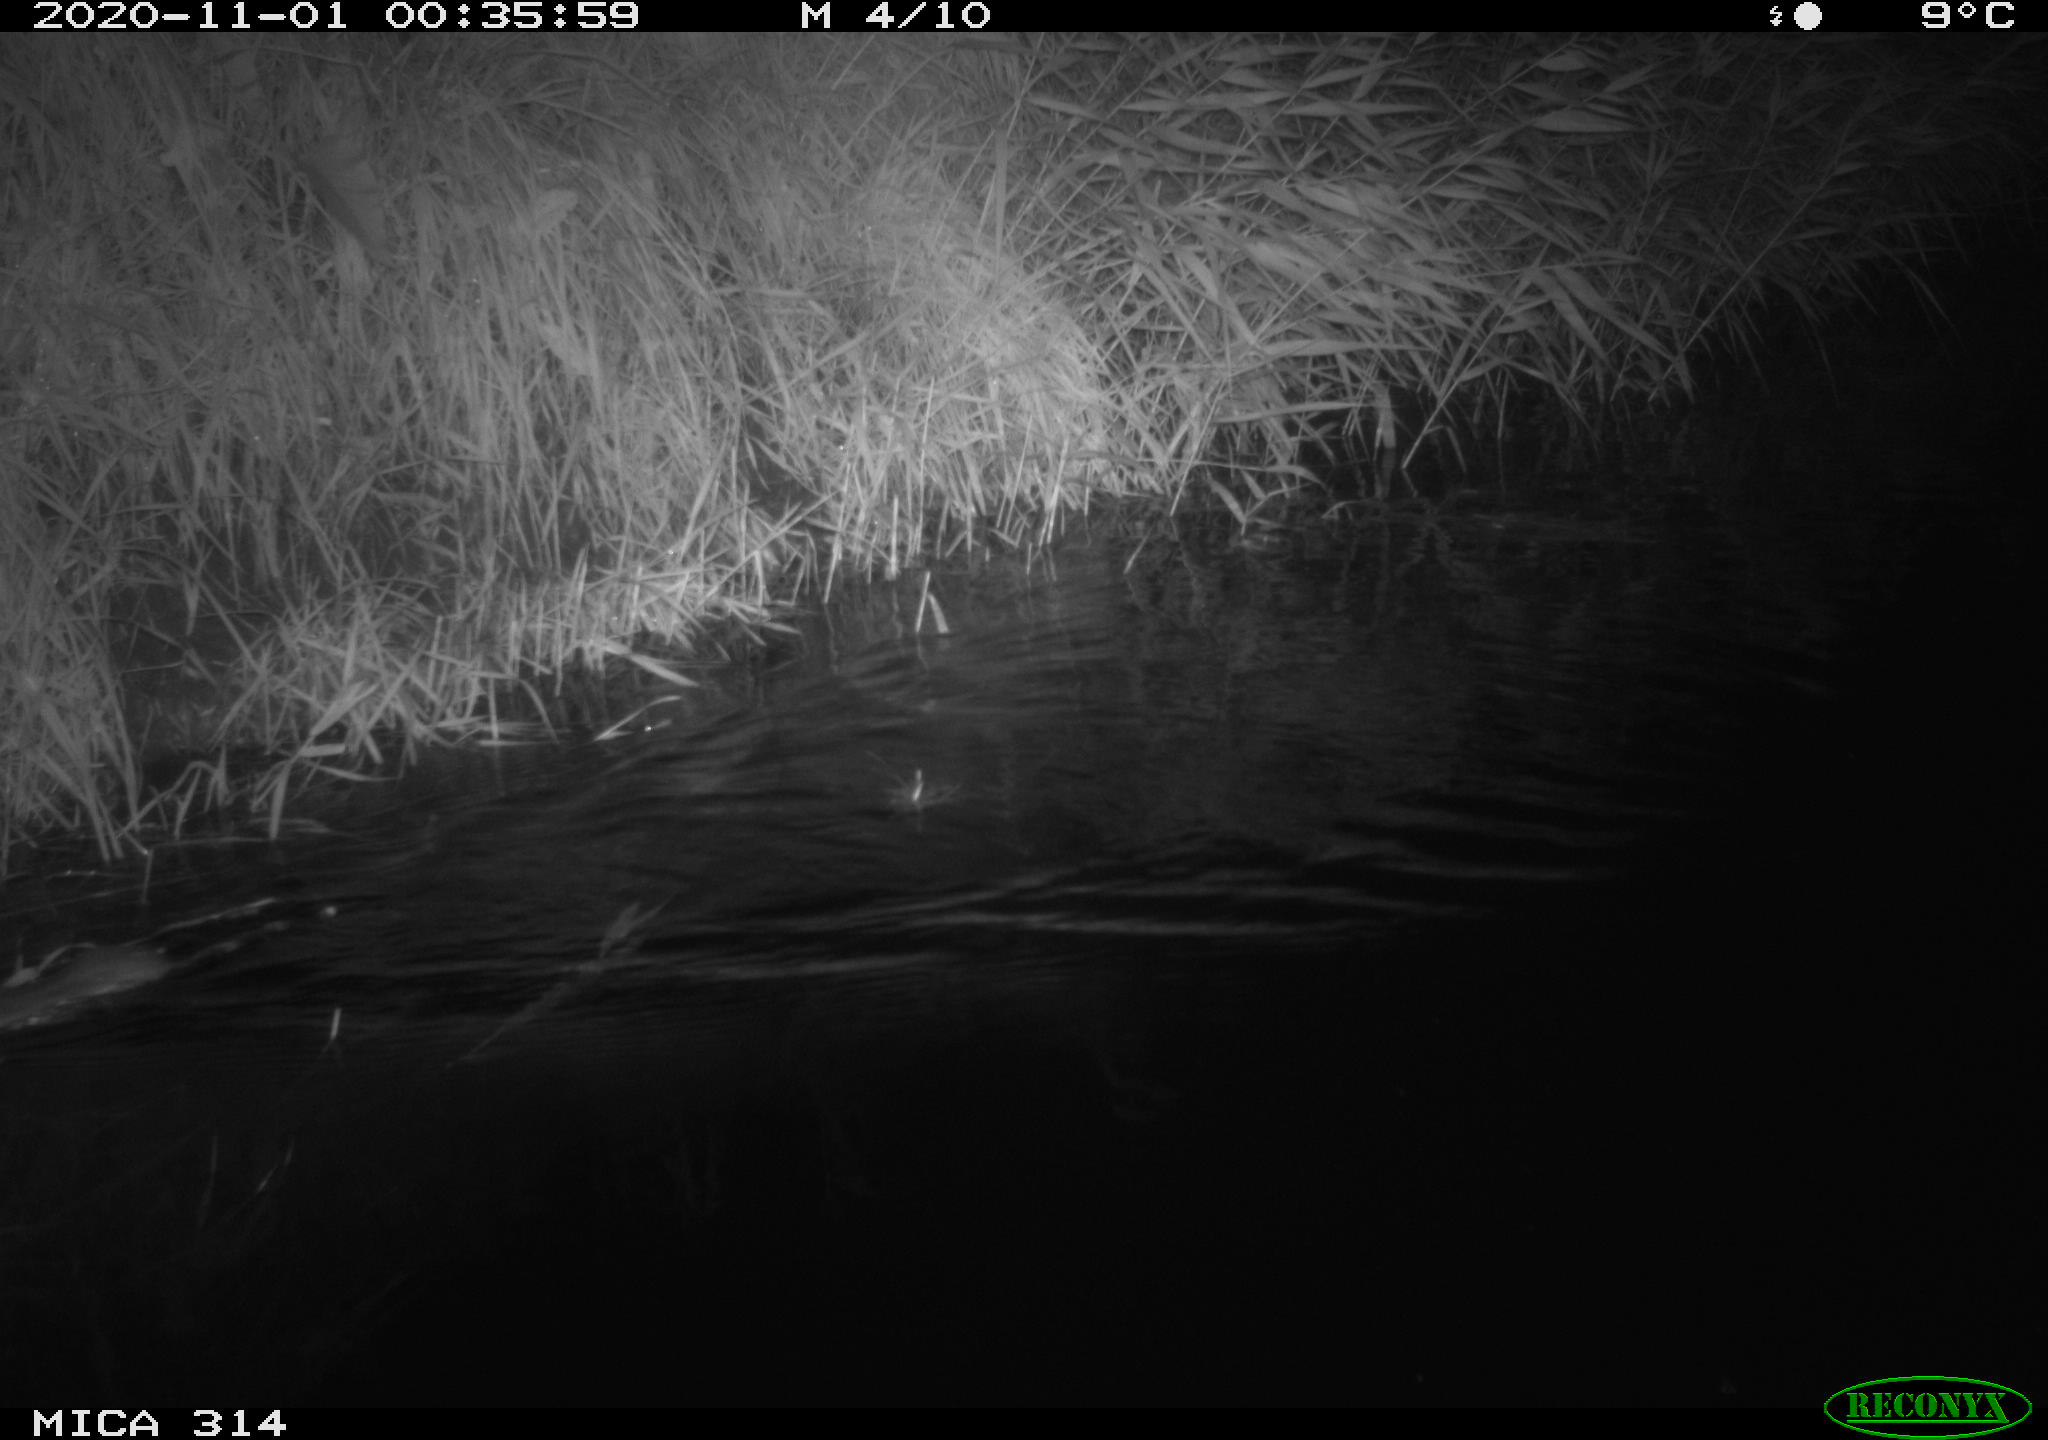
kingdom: Animalia
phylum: Chordata
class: Mammalia
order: Rodentia
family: Muridae
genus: Rattus
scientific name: Rattus norvegicus
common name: Brown rat
